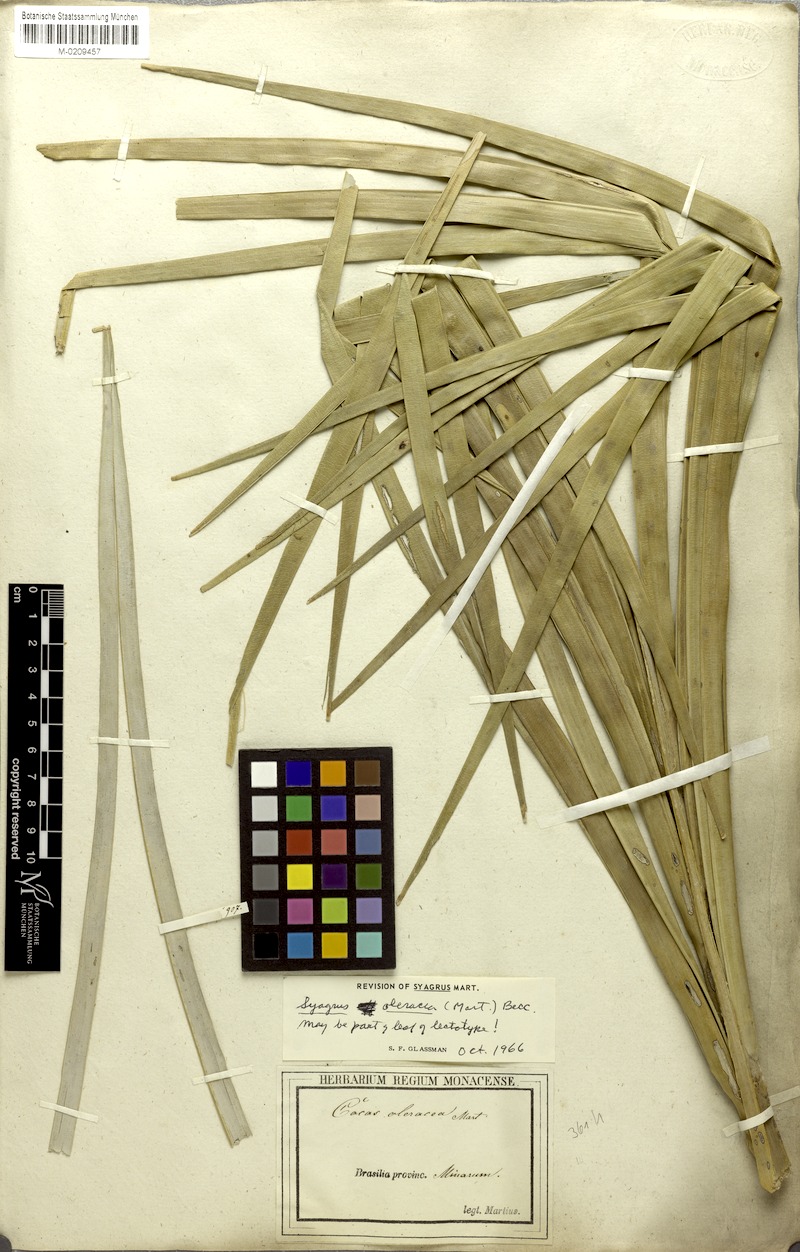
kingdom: Plantae
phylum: Tracheophyta
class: Liliopsida
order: Arecales
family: Arecaceae
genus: Syagrus
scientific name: Syagrus oleracea
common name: Catole palm
